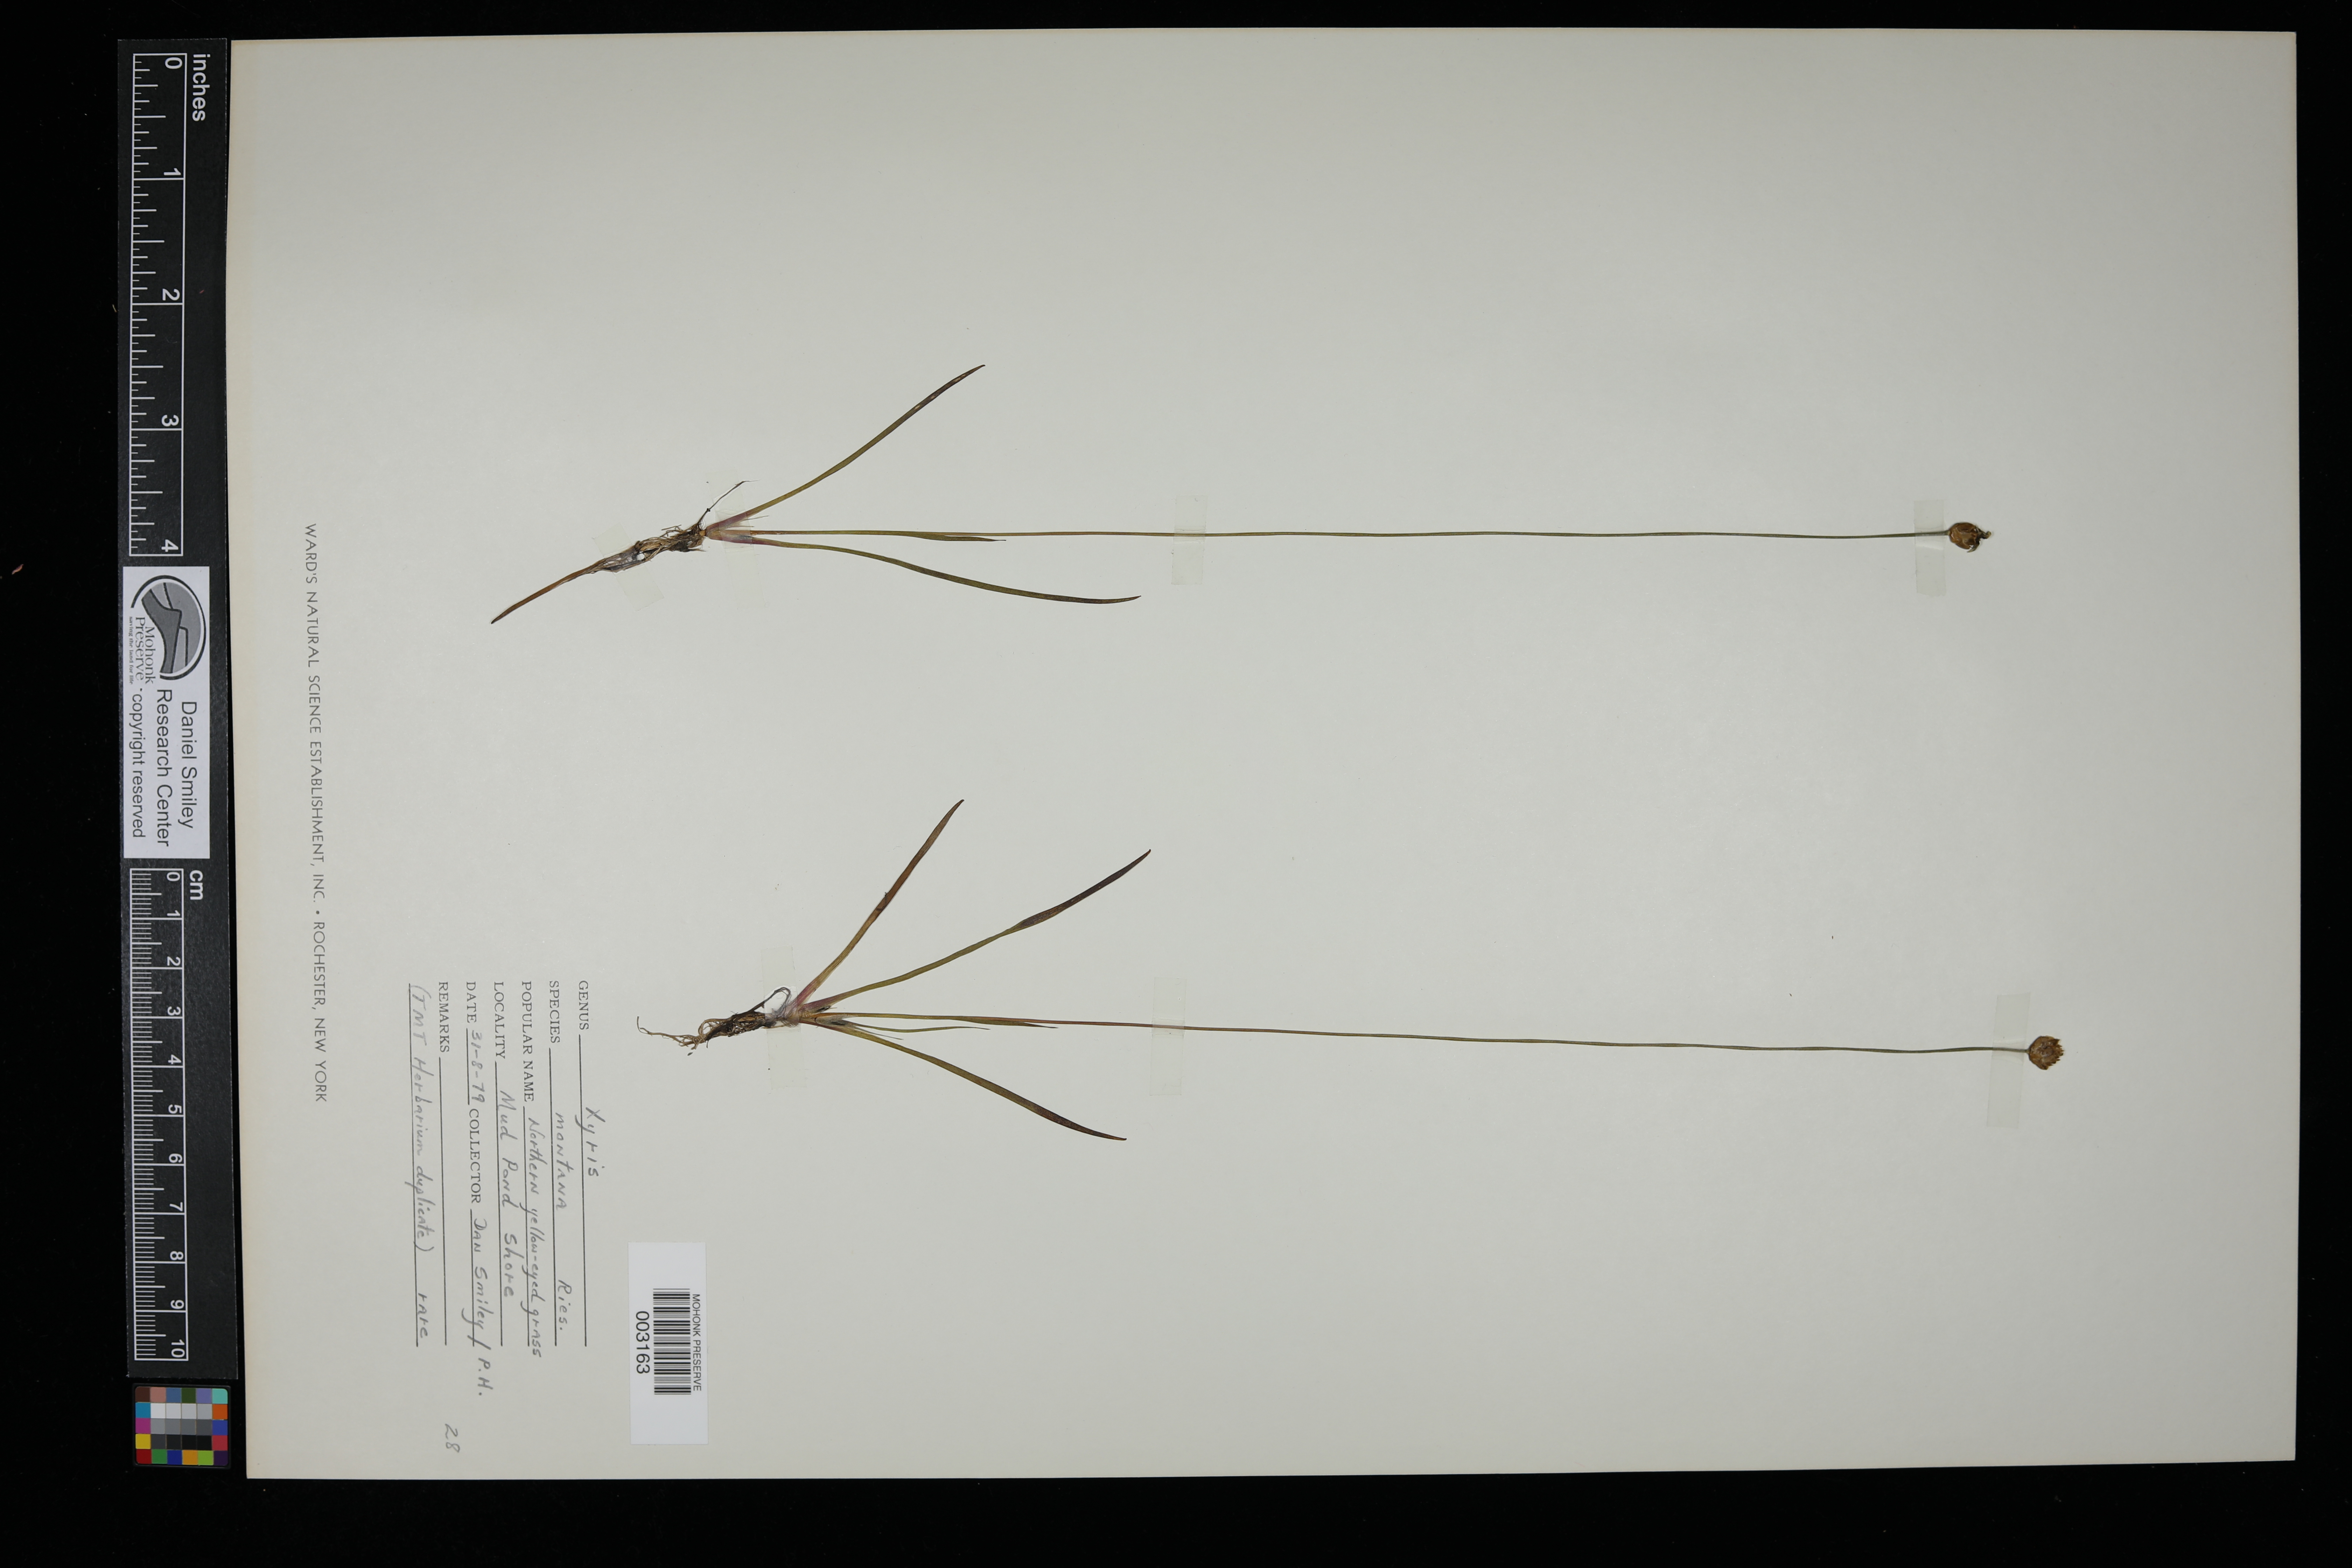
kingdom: Plantae
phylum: Tracheophyta
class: Liliopsida
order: Poales
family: Xyridaceae
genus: Xyris
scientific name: Xyris montana
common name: Northern yellow-eyed-grass
